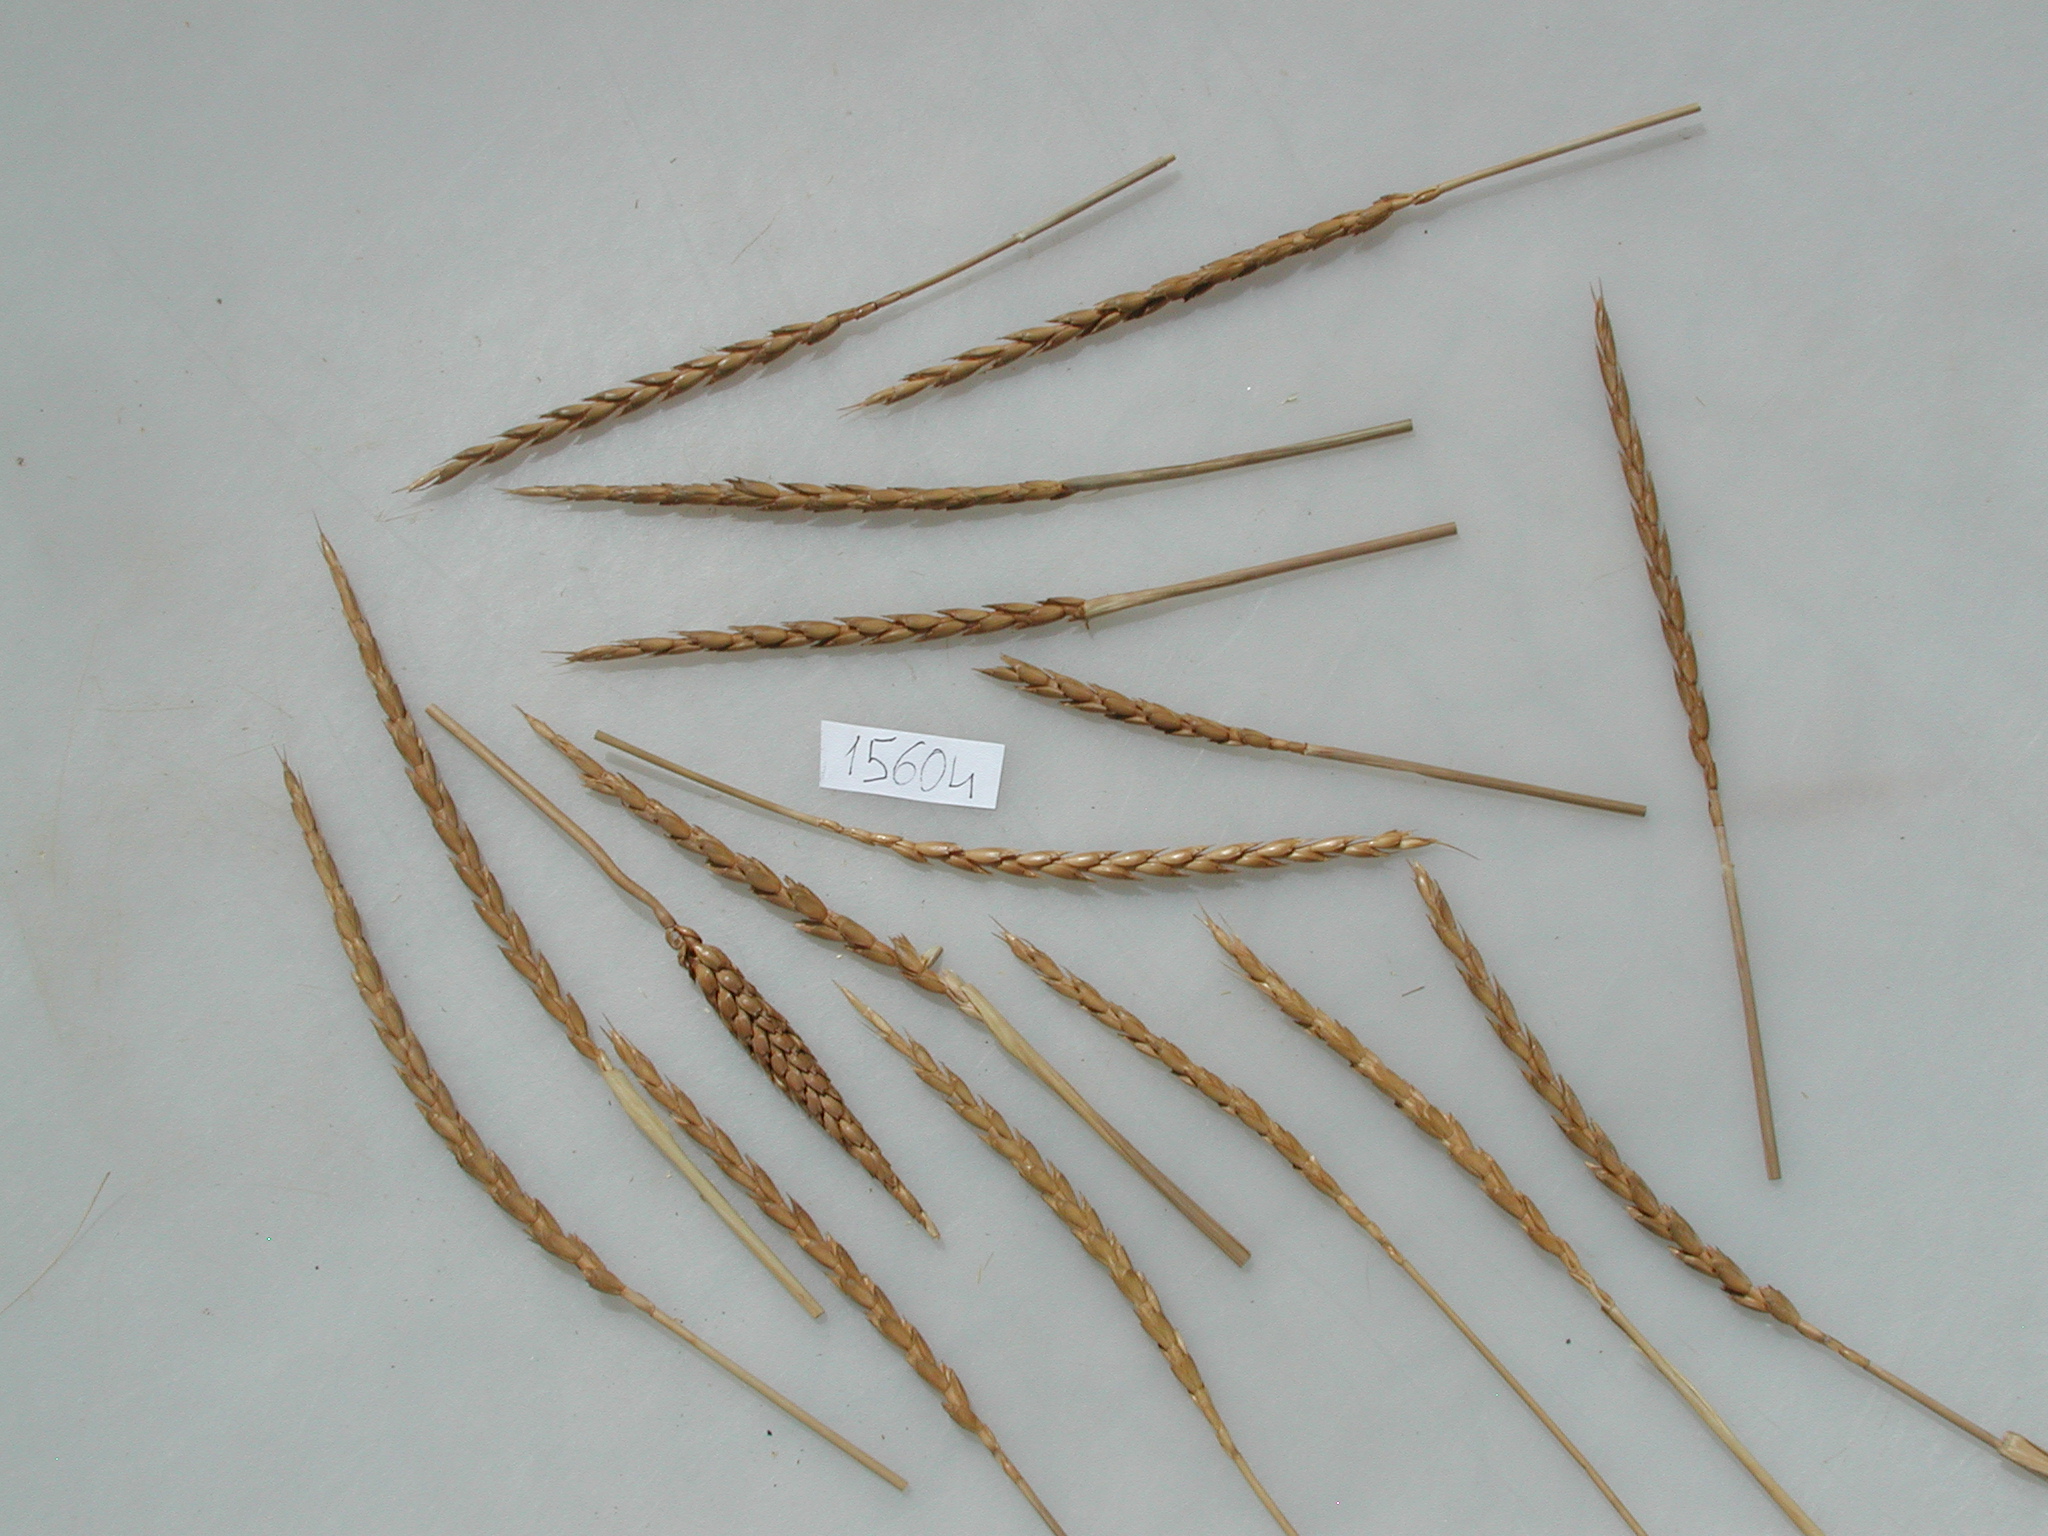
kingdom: Plantae
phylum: Tracheophyta
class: Liliopsida
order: Poales
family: Poaceae
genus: Triticum
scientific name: Triticum aestivum
